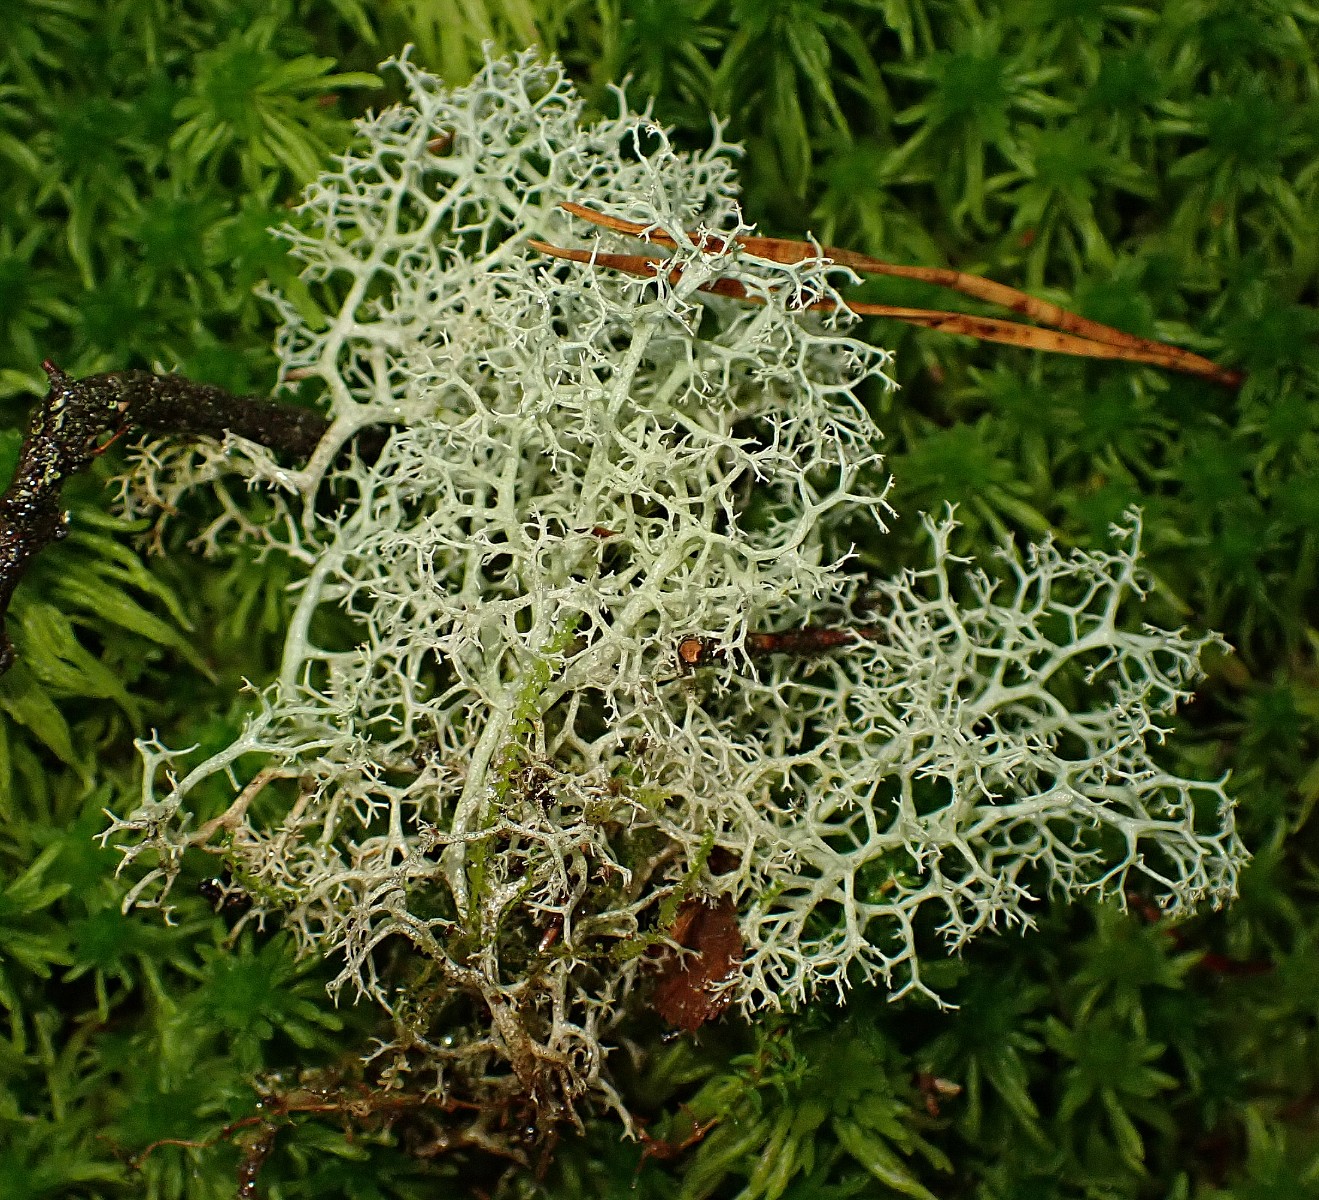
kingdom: Fungi
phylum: Ascomycota
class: Lecanoromycetes
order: Lecanorales
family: Cladoniaceae
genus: Cladonia
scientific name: Cladonia portentosa
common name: hede-rensdyrlav
